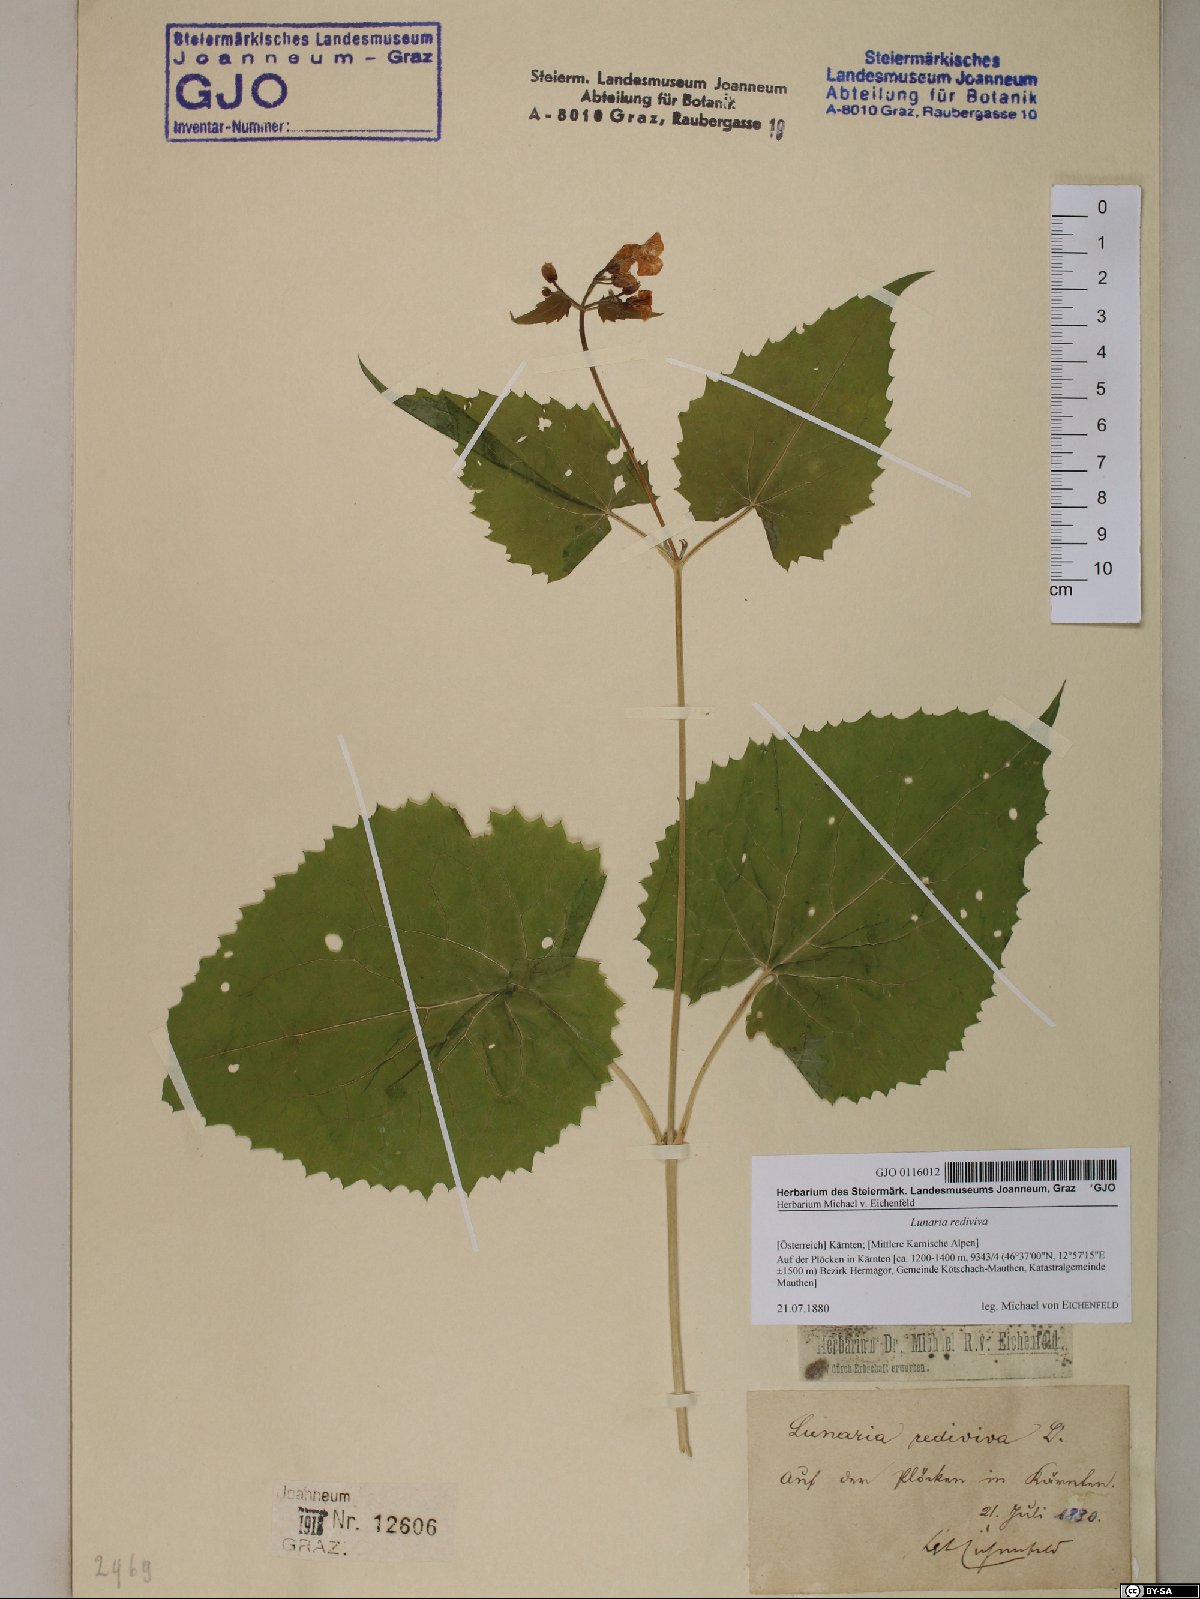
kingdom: Plantae
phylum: Tracheophyta
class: Magnoliopsida
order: Brassicales
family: Brassicaceae
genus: Lunaria
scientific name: Lunaria rediviva
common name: Perennial honesty
